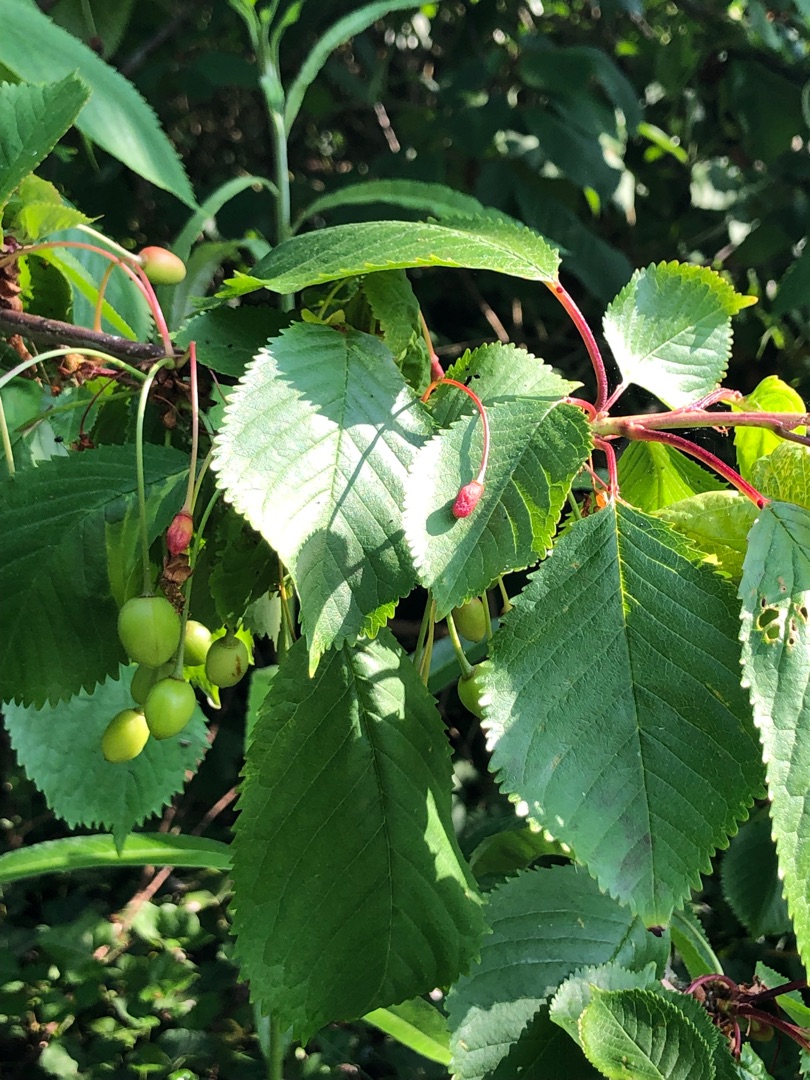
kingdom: Plantae
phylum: Tracheophyta
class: Magnoliopsida
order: Rosales
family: Rosaceae
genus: Prunus
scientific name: Prunus avium
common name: Fugle-kirsebær
